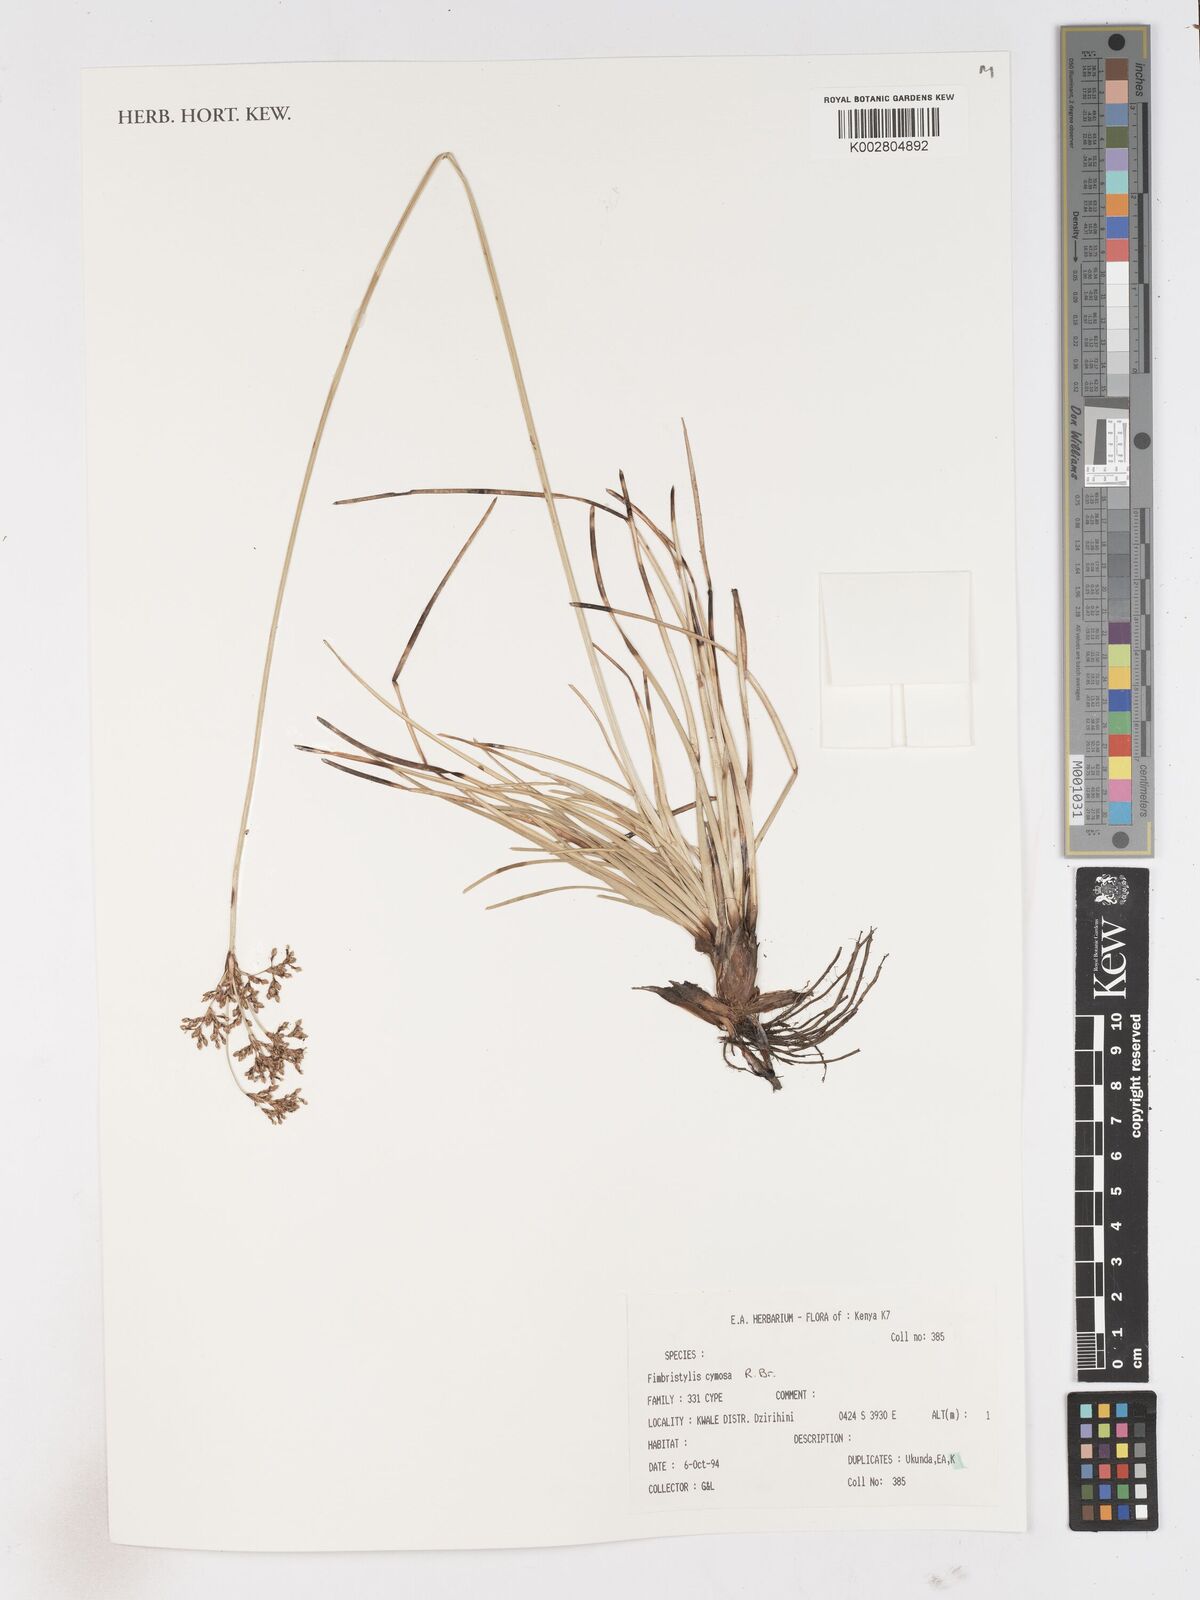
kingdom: Plantae
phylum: Tracheophyta
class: Liliopsida
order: Poales
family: Cyperaceae
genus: Fimbristylis
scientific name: Fimbristylis cymosa
